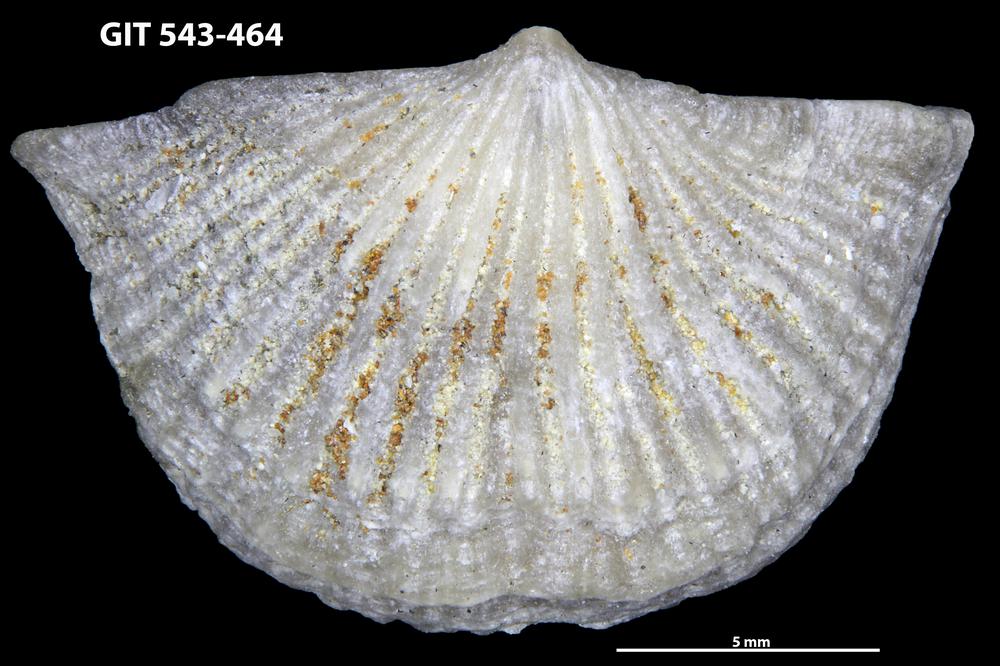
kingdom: Animalia
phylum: Brachiopoda
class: Rhynchonellata
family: Clitambonitidae
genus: Vellamo
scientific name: Vellamo
